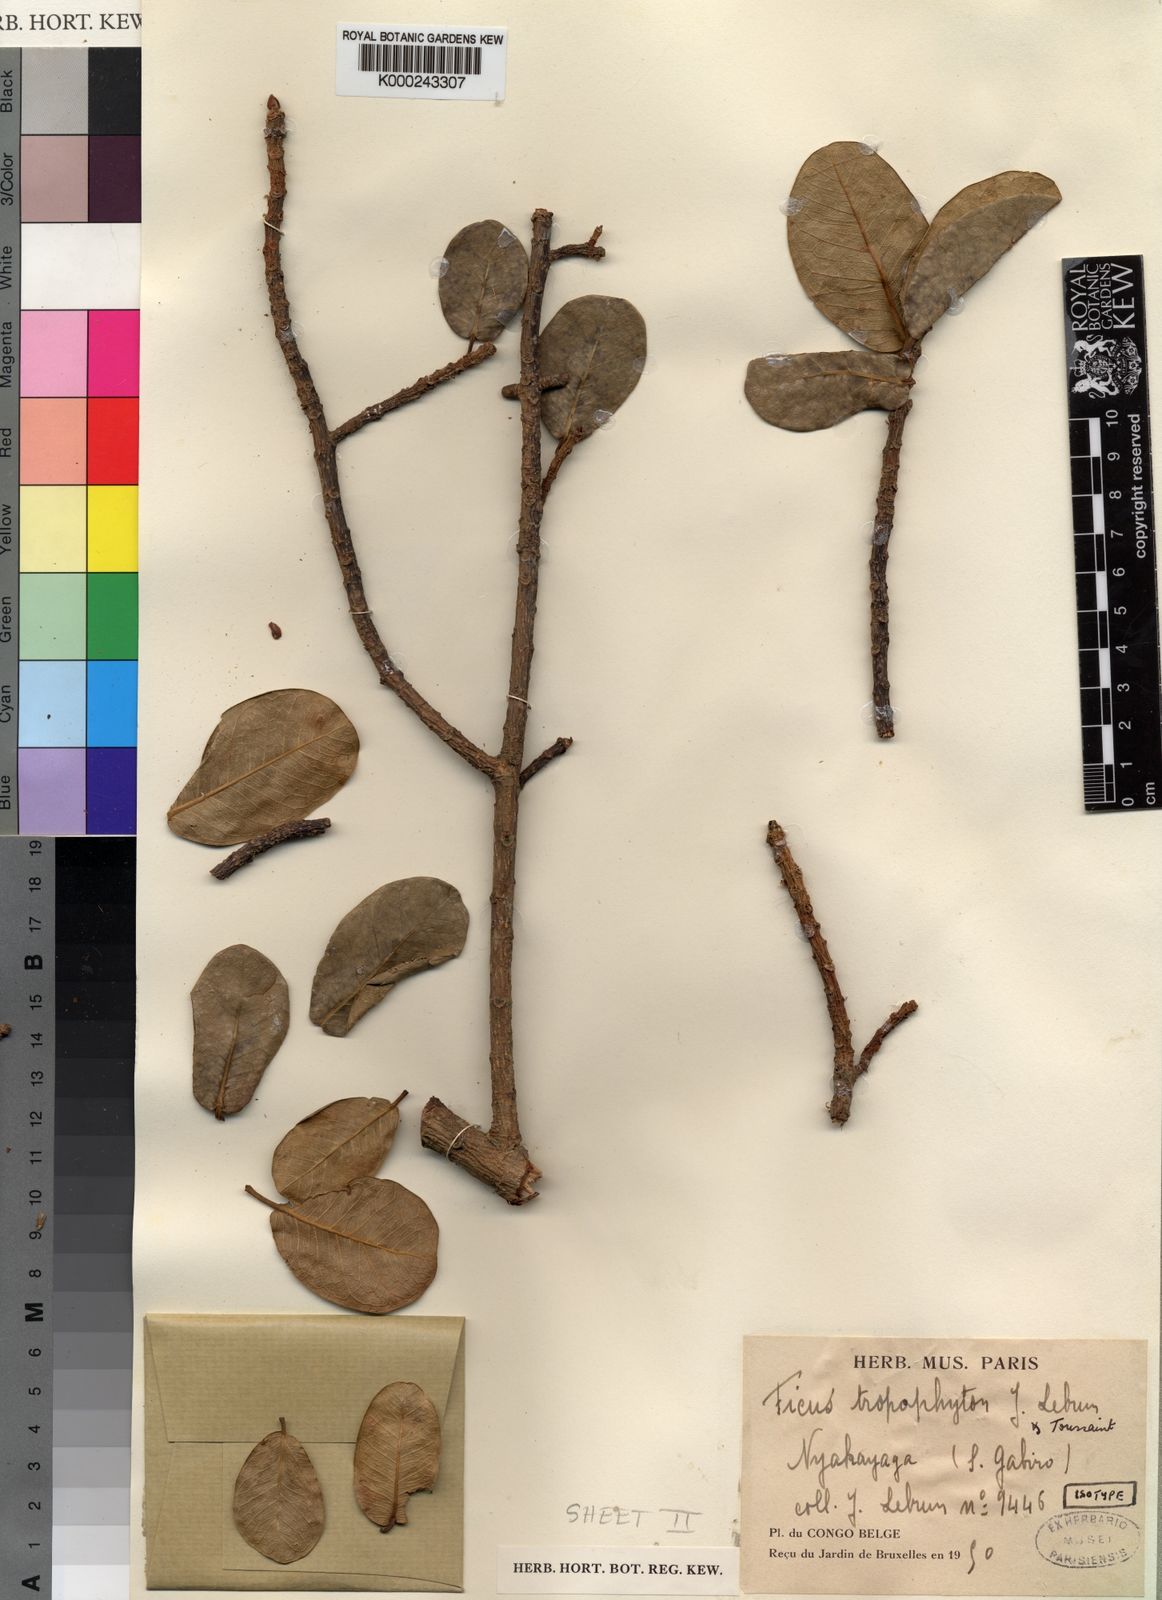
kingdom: Plantae
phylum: Tracheophyta
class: Magnoliopsida
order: Rosales
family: Moraceae
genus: Ficus
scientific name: Ficus thonningii
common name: Fig
